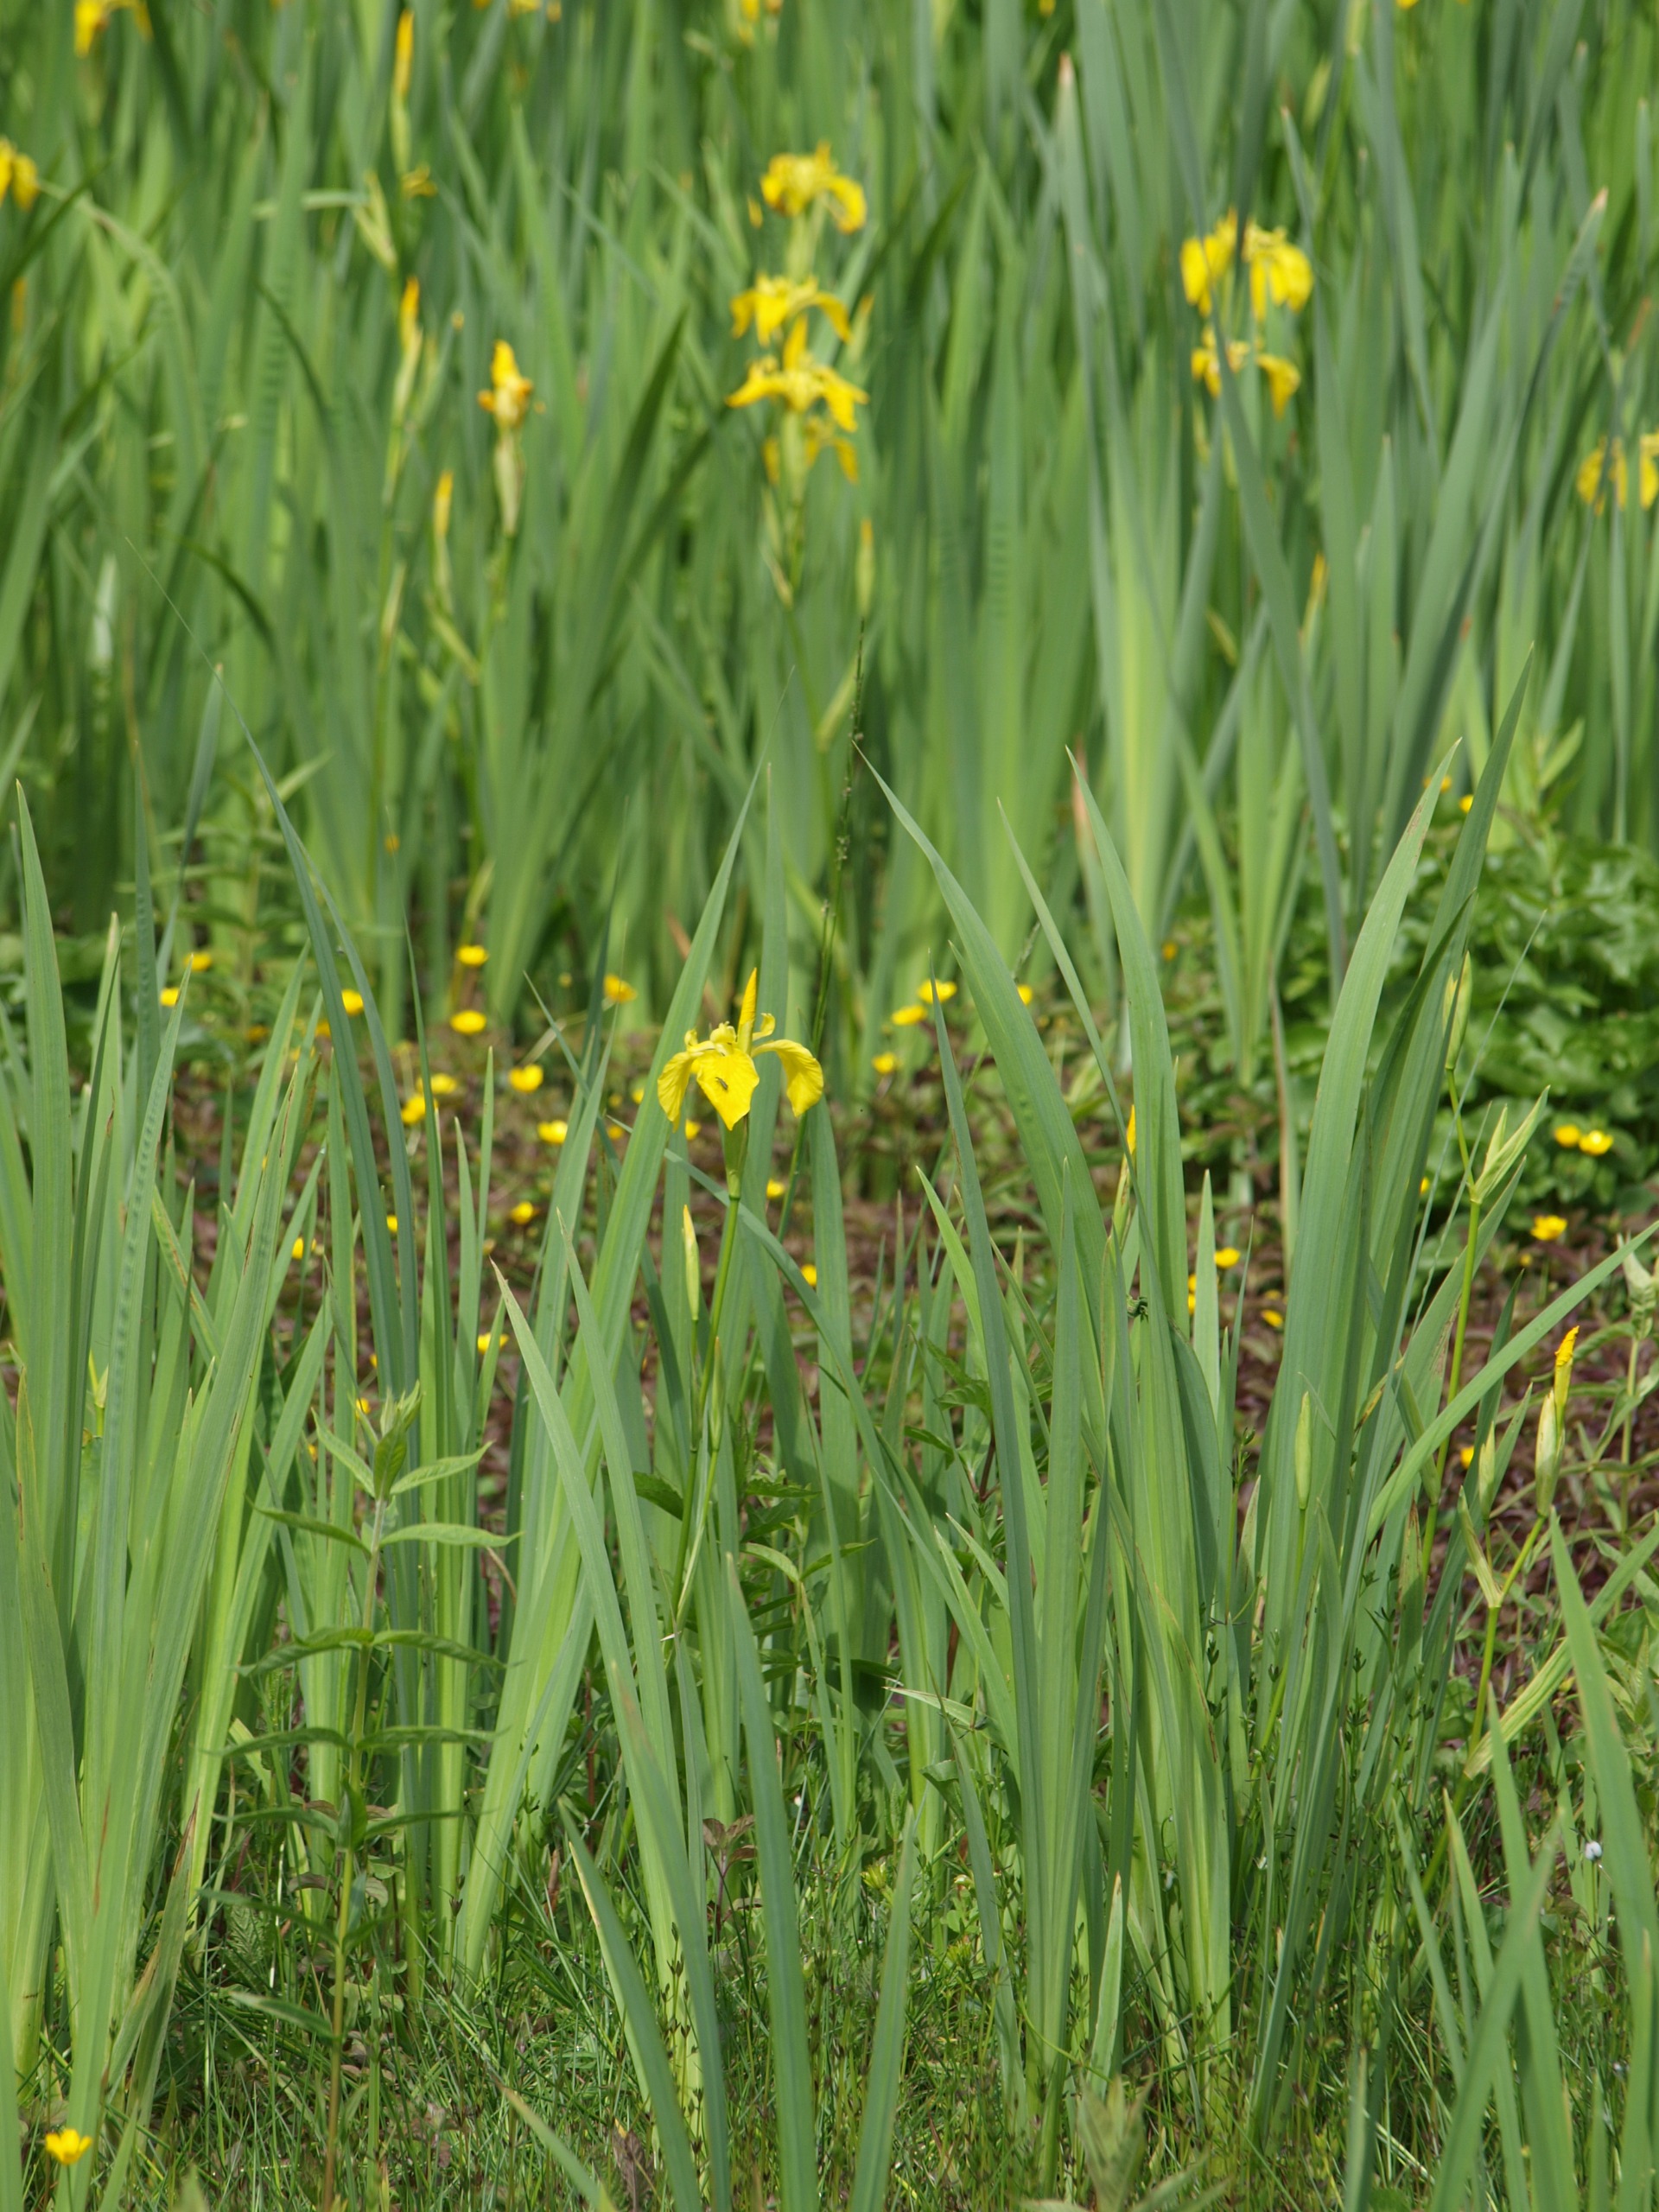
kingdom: Plantae
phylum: Tracheophyta
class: Liliopsida
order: Asparagales
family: Iridaceae
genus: Iris
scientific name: Iris pseudacorus
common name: Gul iris
